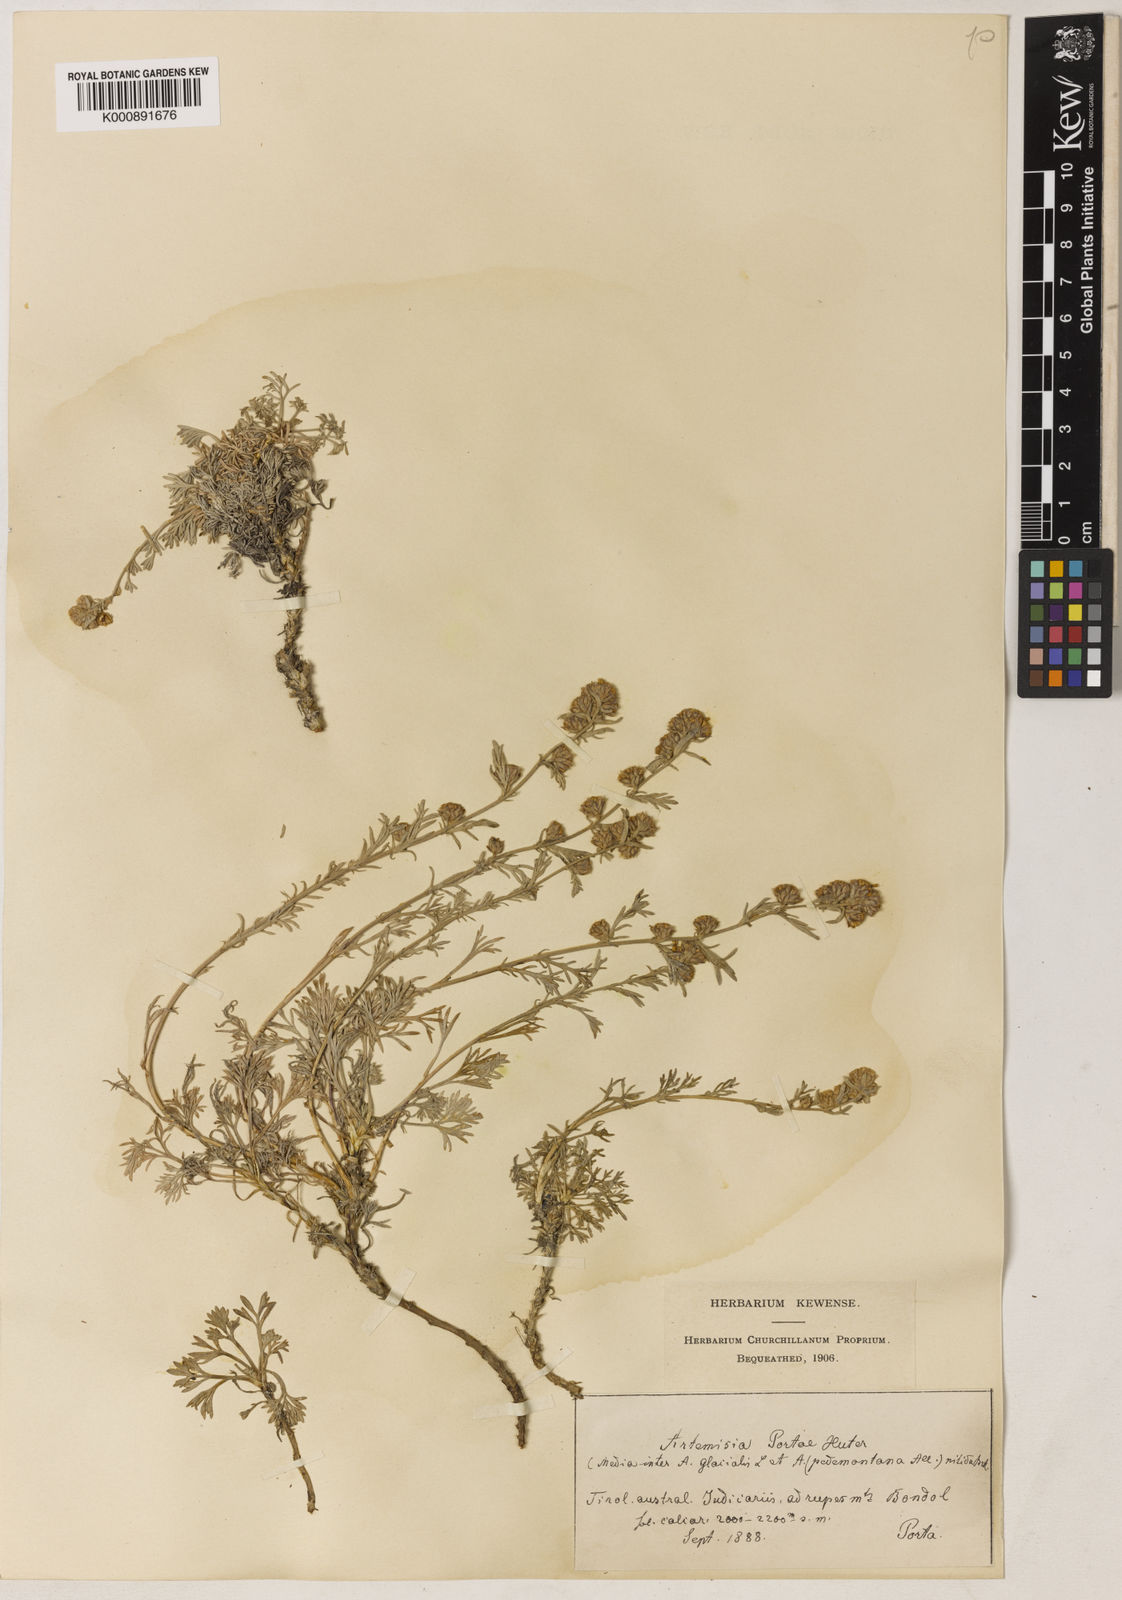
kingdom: Plantae
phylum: Tracheophyta
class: Magnoliopsida
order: Asterales
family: Asteraceae
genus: Artemisia
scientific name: Artemisia nitida
